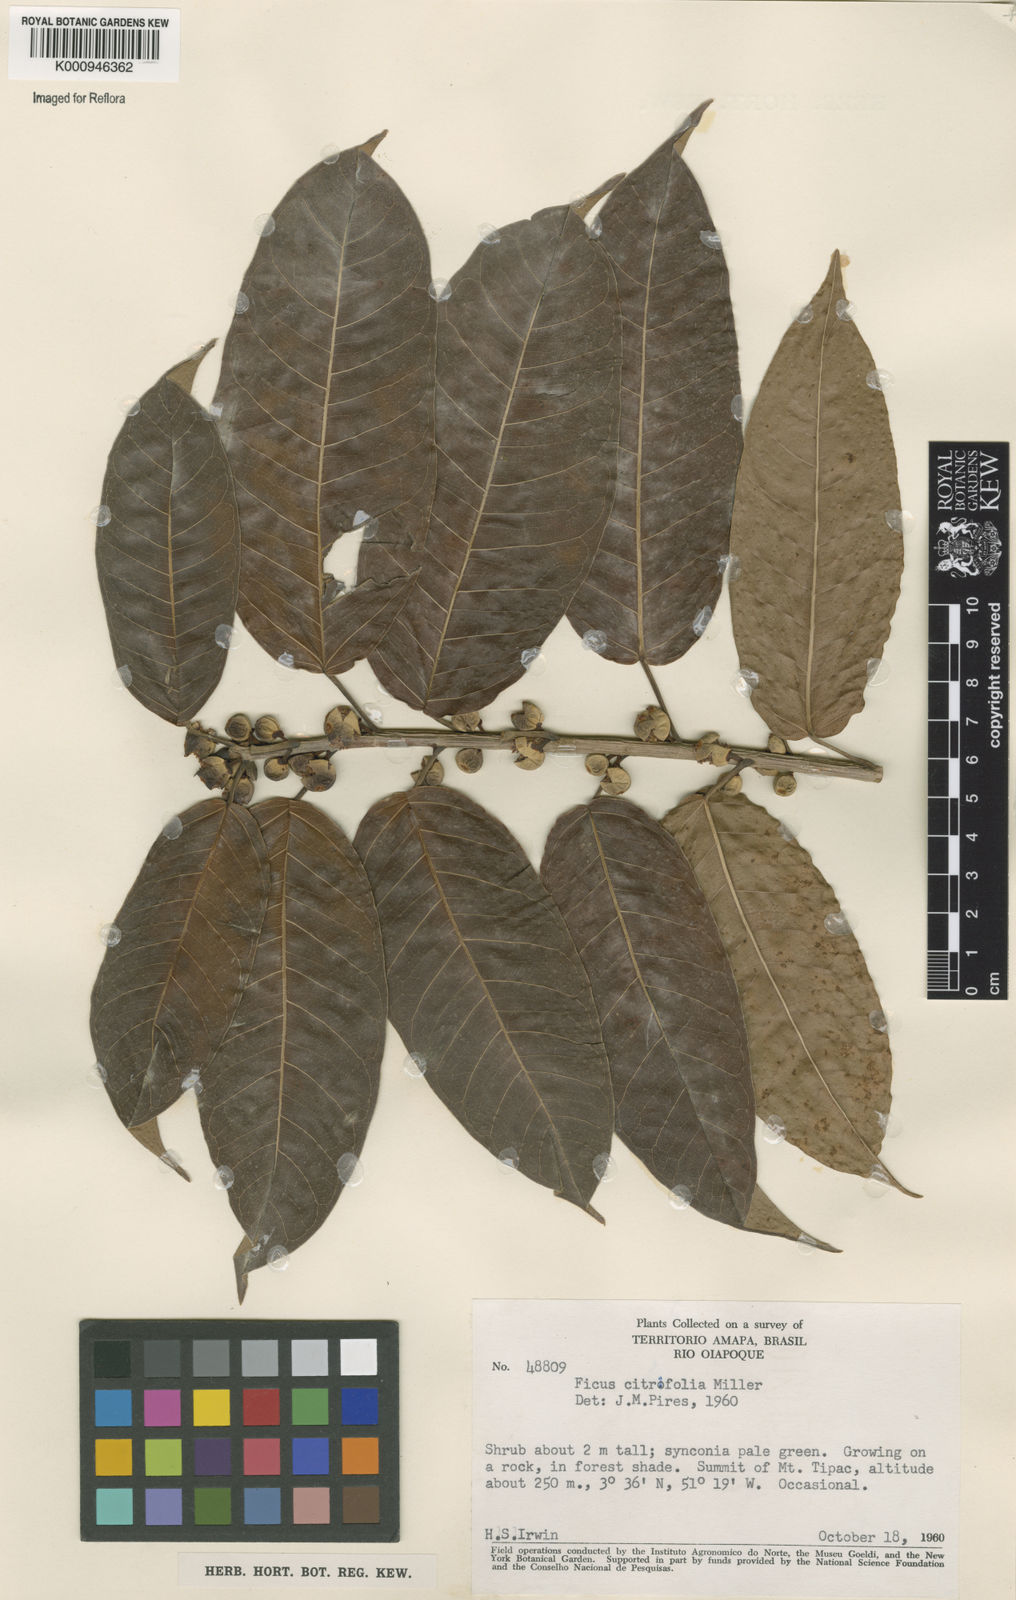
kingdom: Plantae
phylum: Tracheophyta
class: Magnoliopsida
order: Rosales
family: Moraceae
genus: Ficus
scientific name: Ficus citrifolia
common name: Strangler fig
